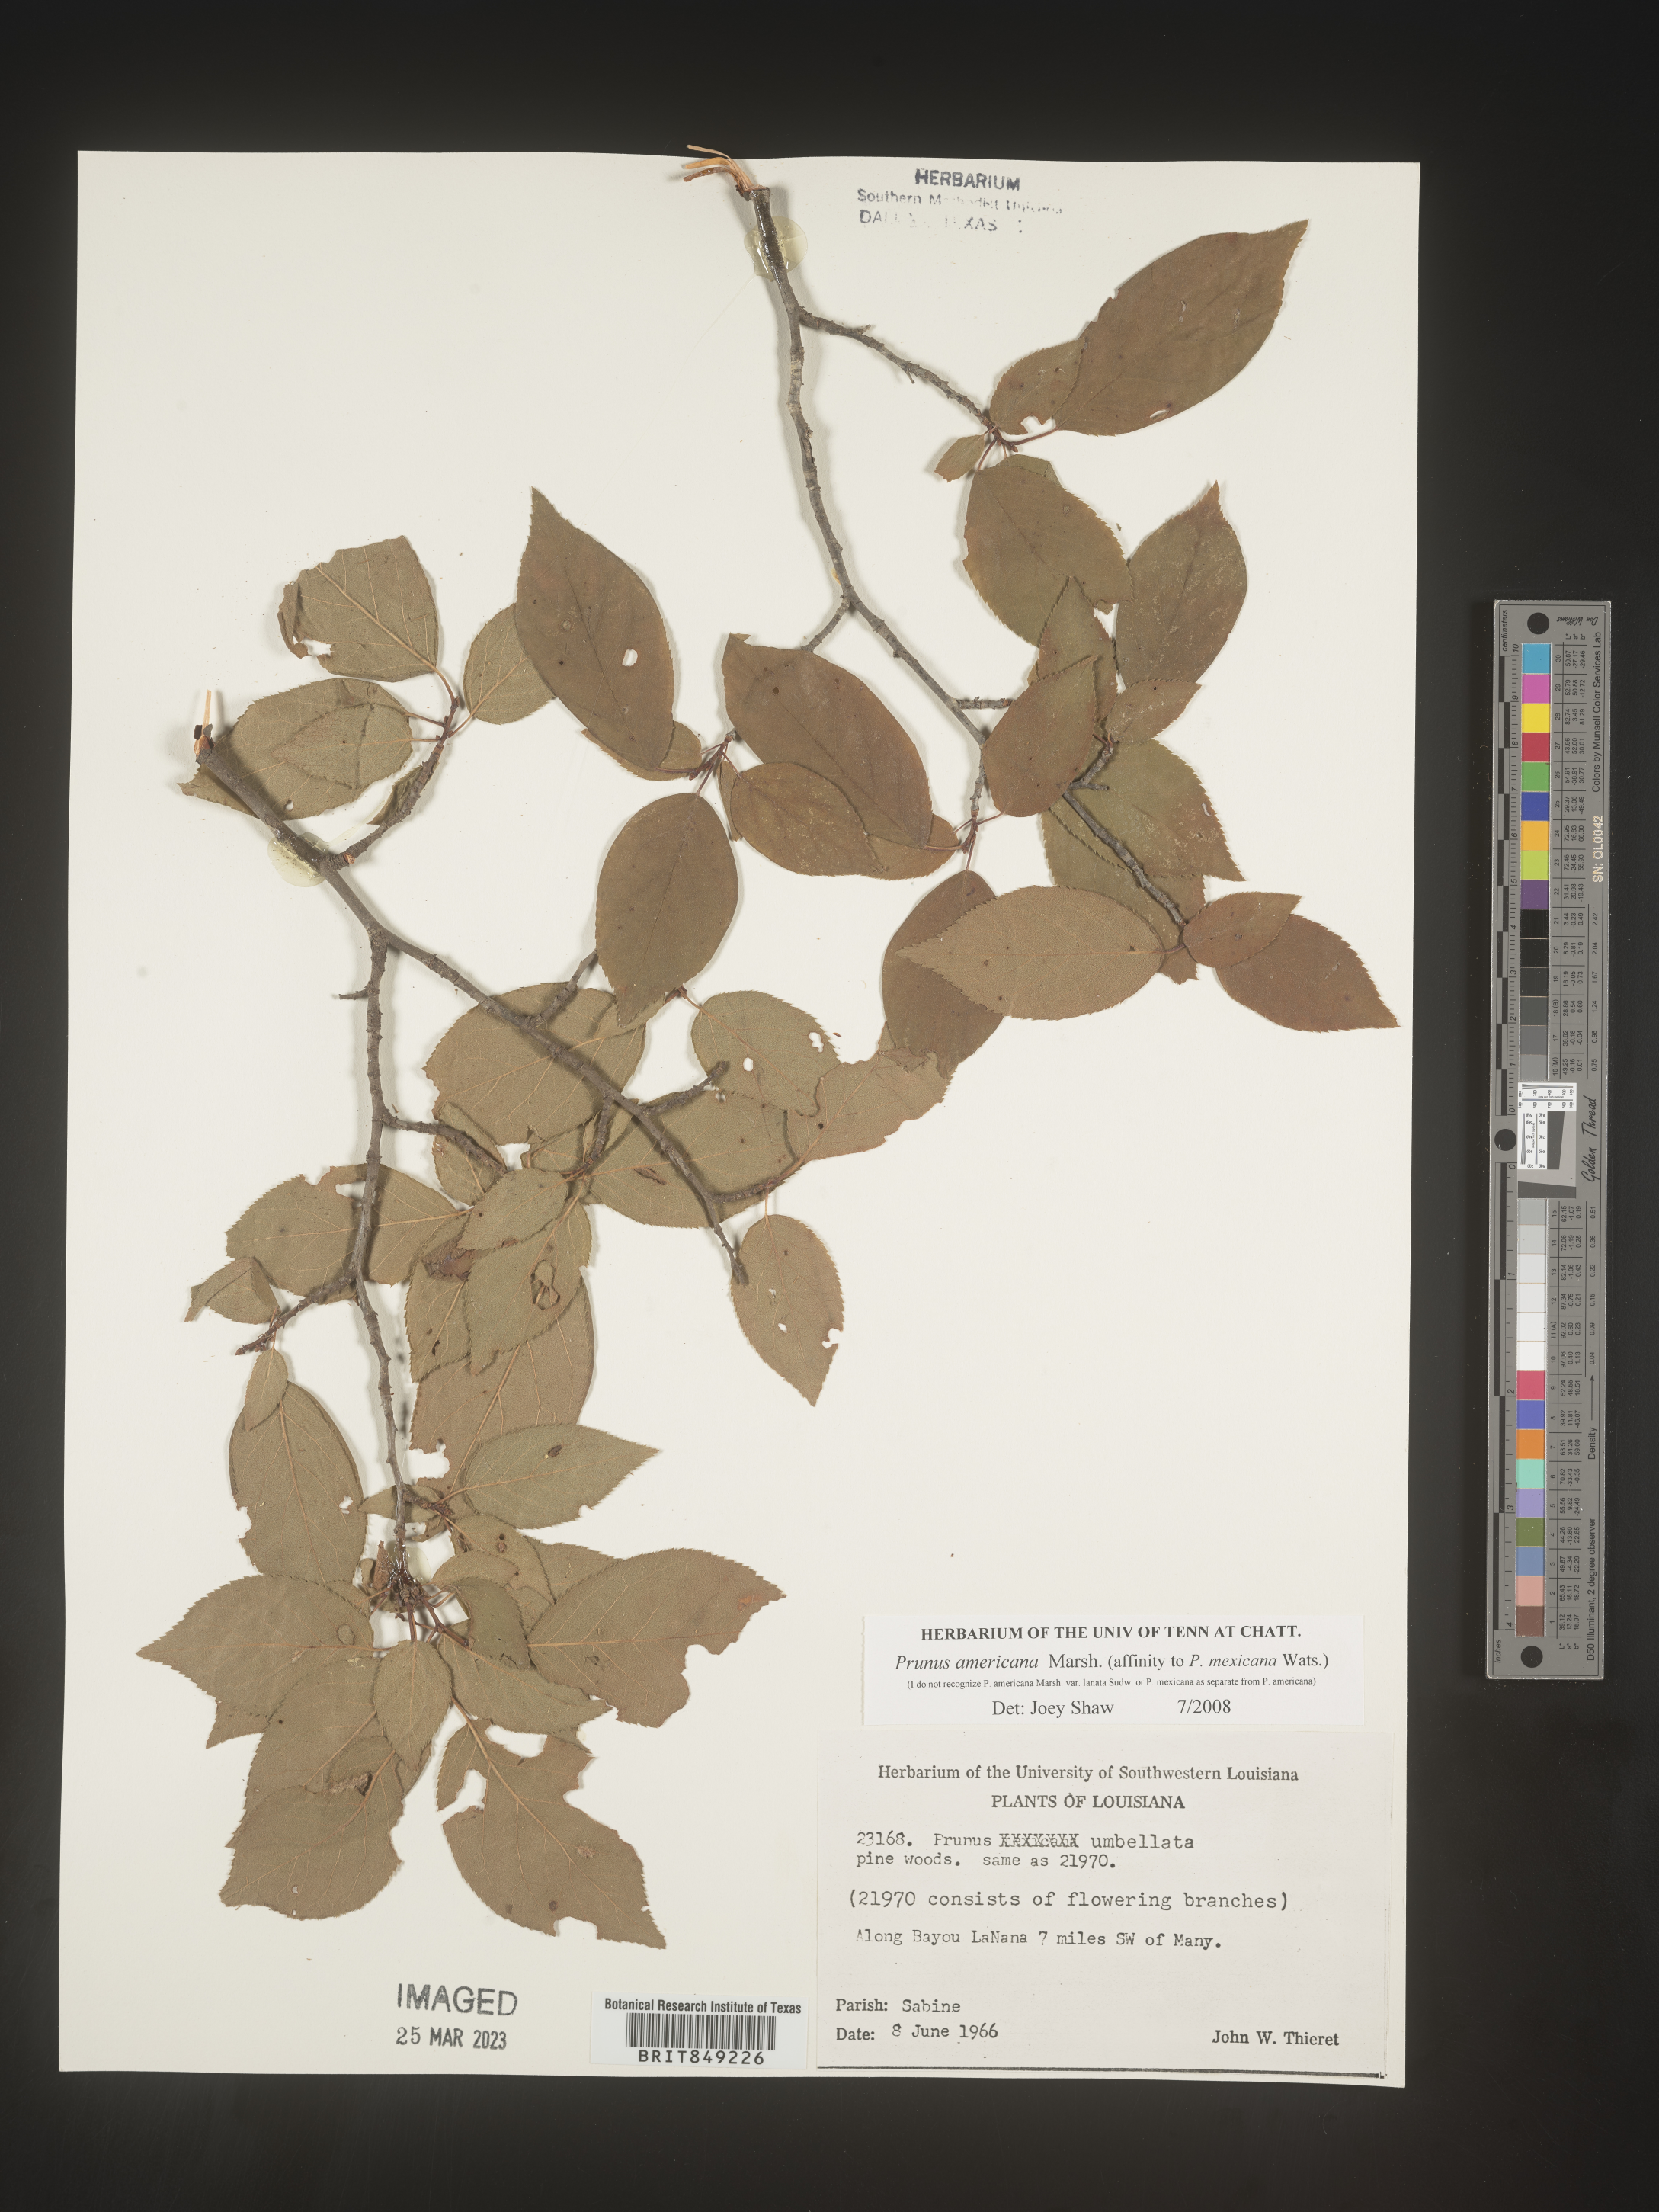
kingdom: Plantae
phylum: Tracheophyta
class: Magnoliopsida
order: Rosales
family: Rosaceae
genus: Prunus
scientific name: Prunus americana
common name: American plum
